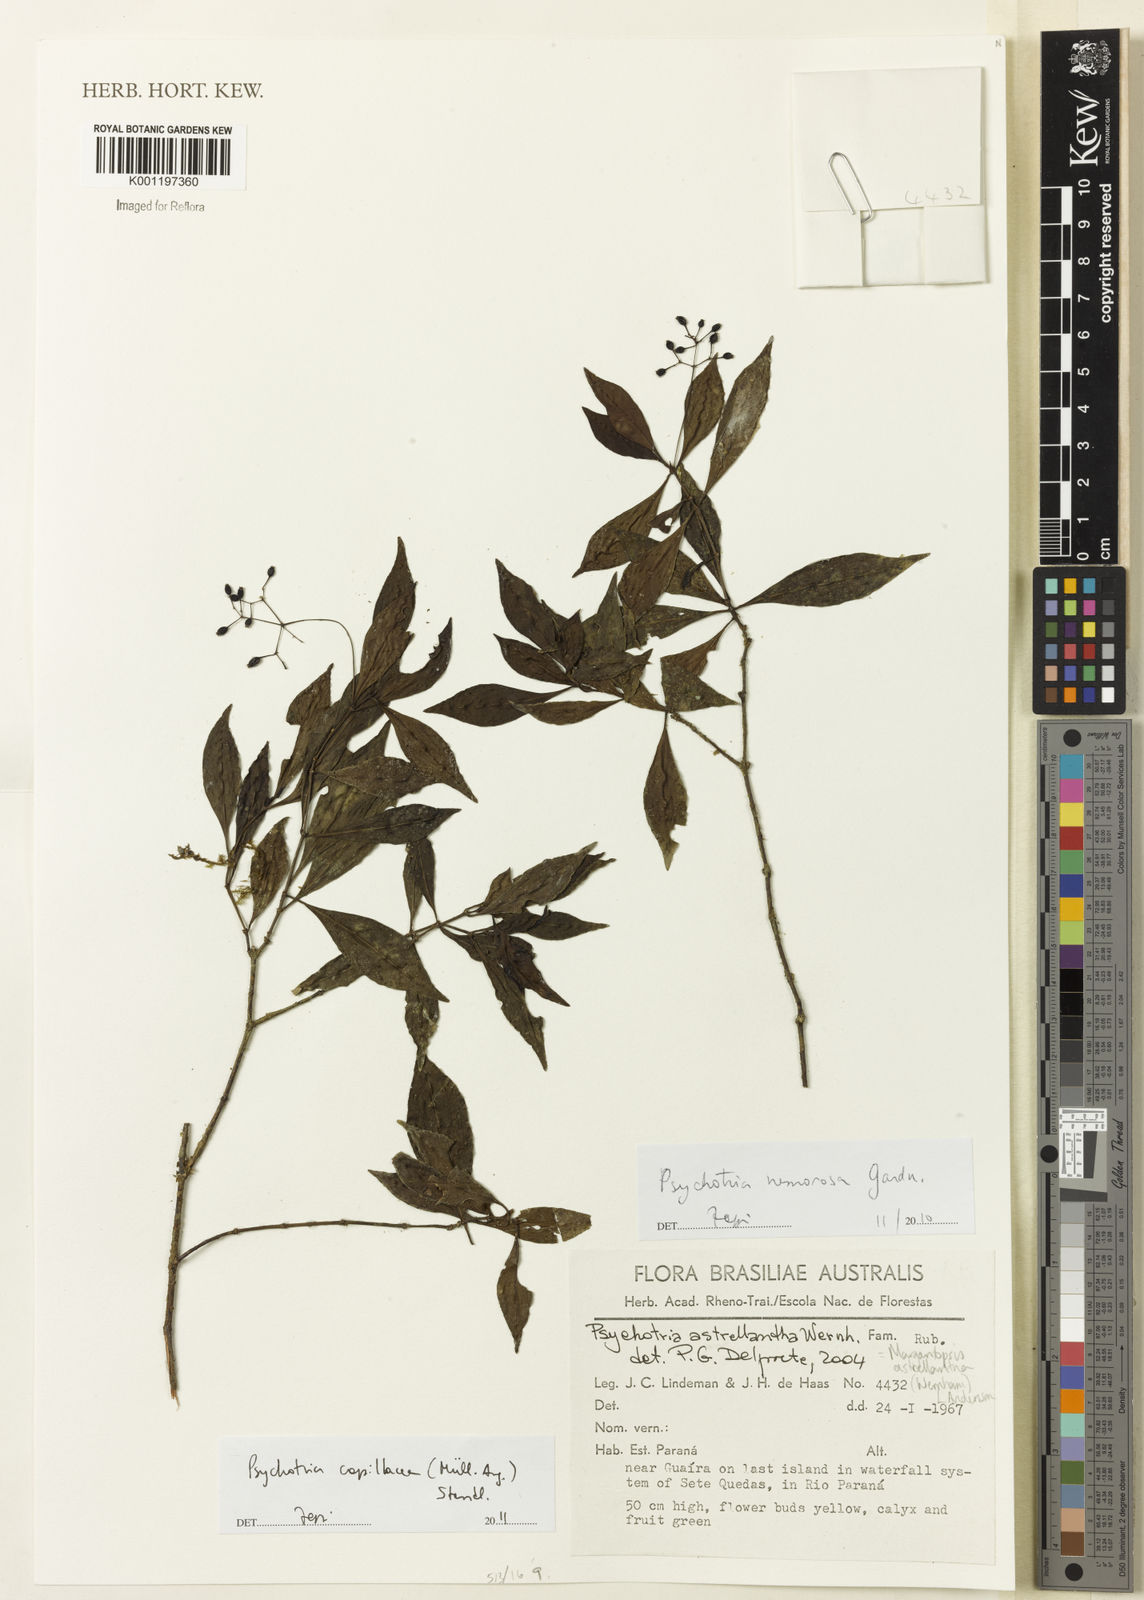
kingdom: Plantae
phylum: Tracheophyta
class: Magnoliopsida
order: Gentianales
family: Rubiaceae
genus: Psychotria
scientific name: Psychotria
